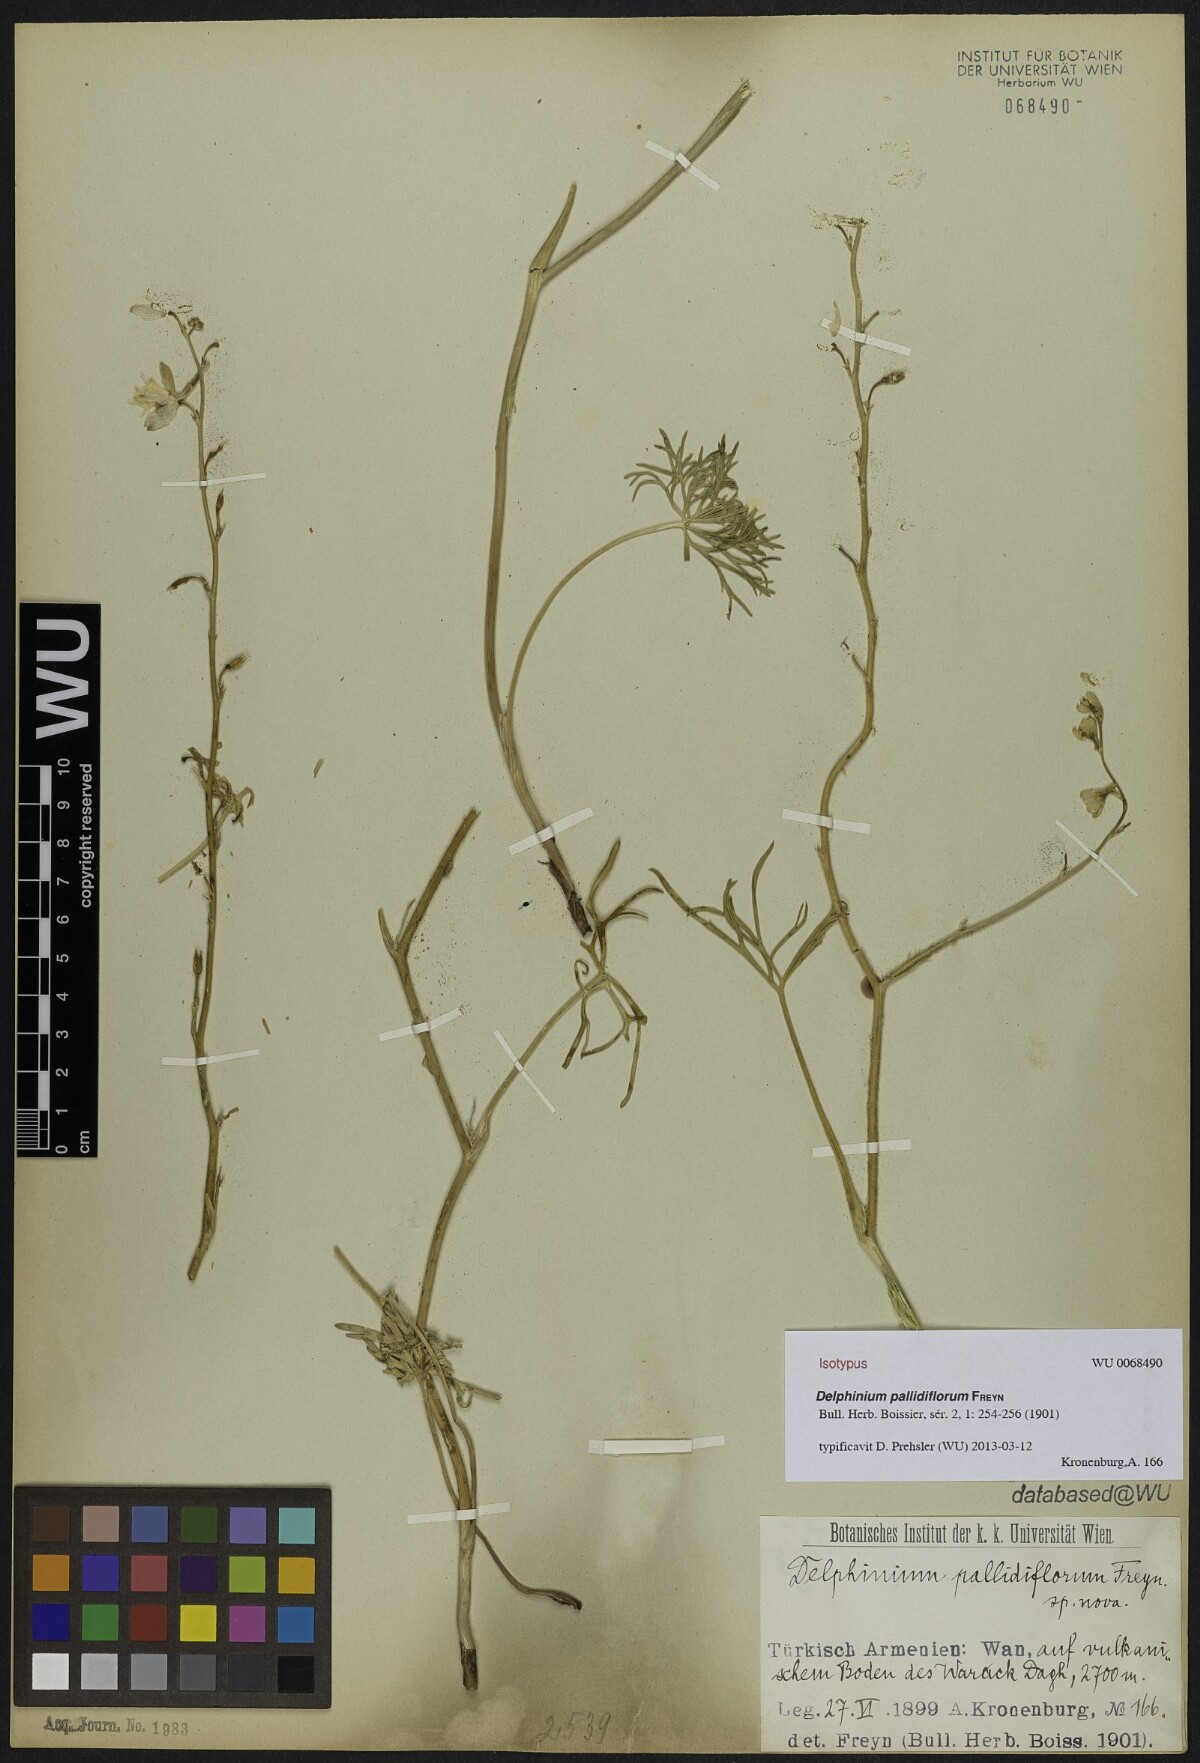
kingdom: Plantae
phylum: Tracheophyta
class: Magnoliopsida
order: Ranunculales
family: Ranunculaceae
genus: Delphinium
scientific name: Delphinium cyphoplectrum
